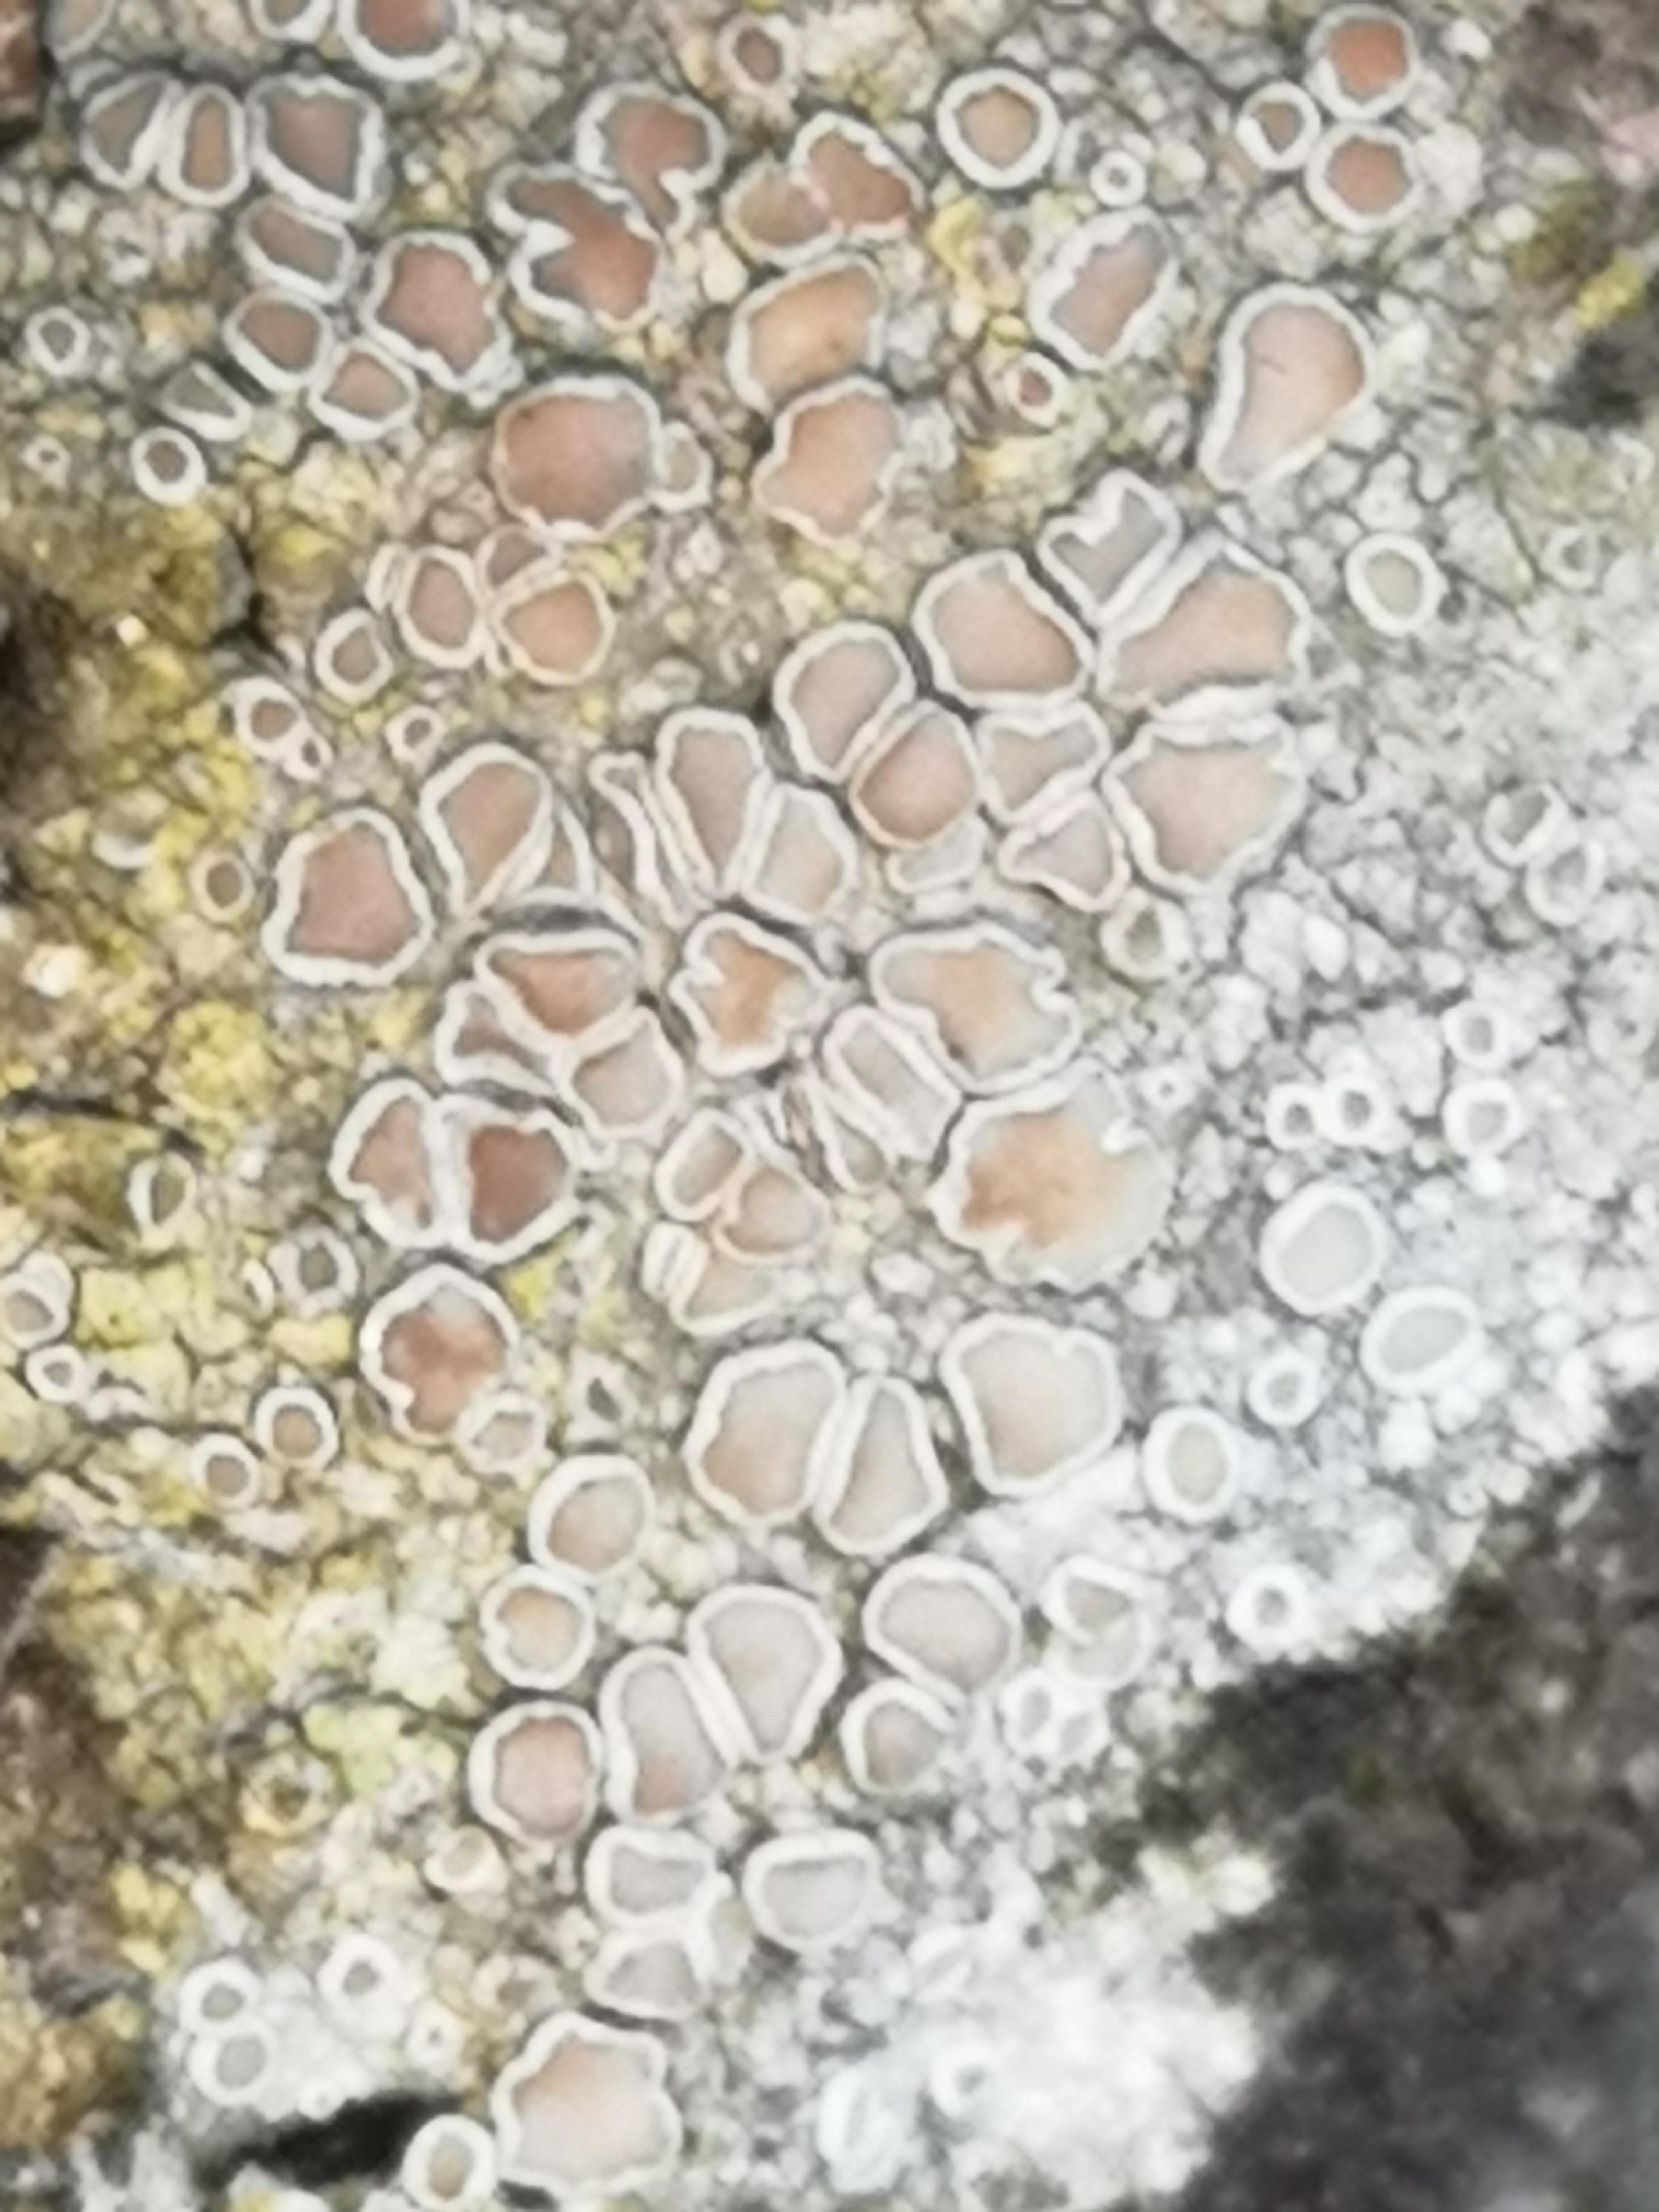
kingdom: Fungi
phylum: Ascomycota
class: Lecanoromycetes
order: Lecanorales
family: Lecanoraceae
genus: Lecanora
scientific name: Lecanora chlarotera
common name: brun kantskivelav
